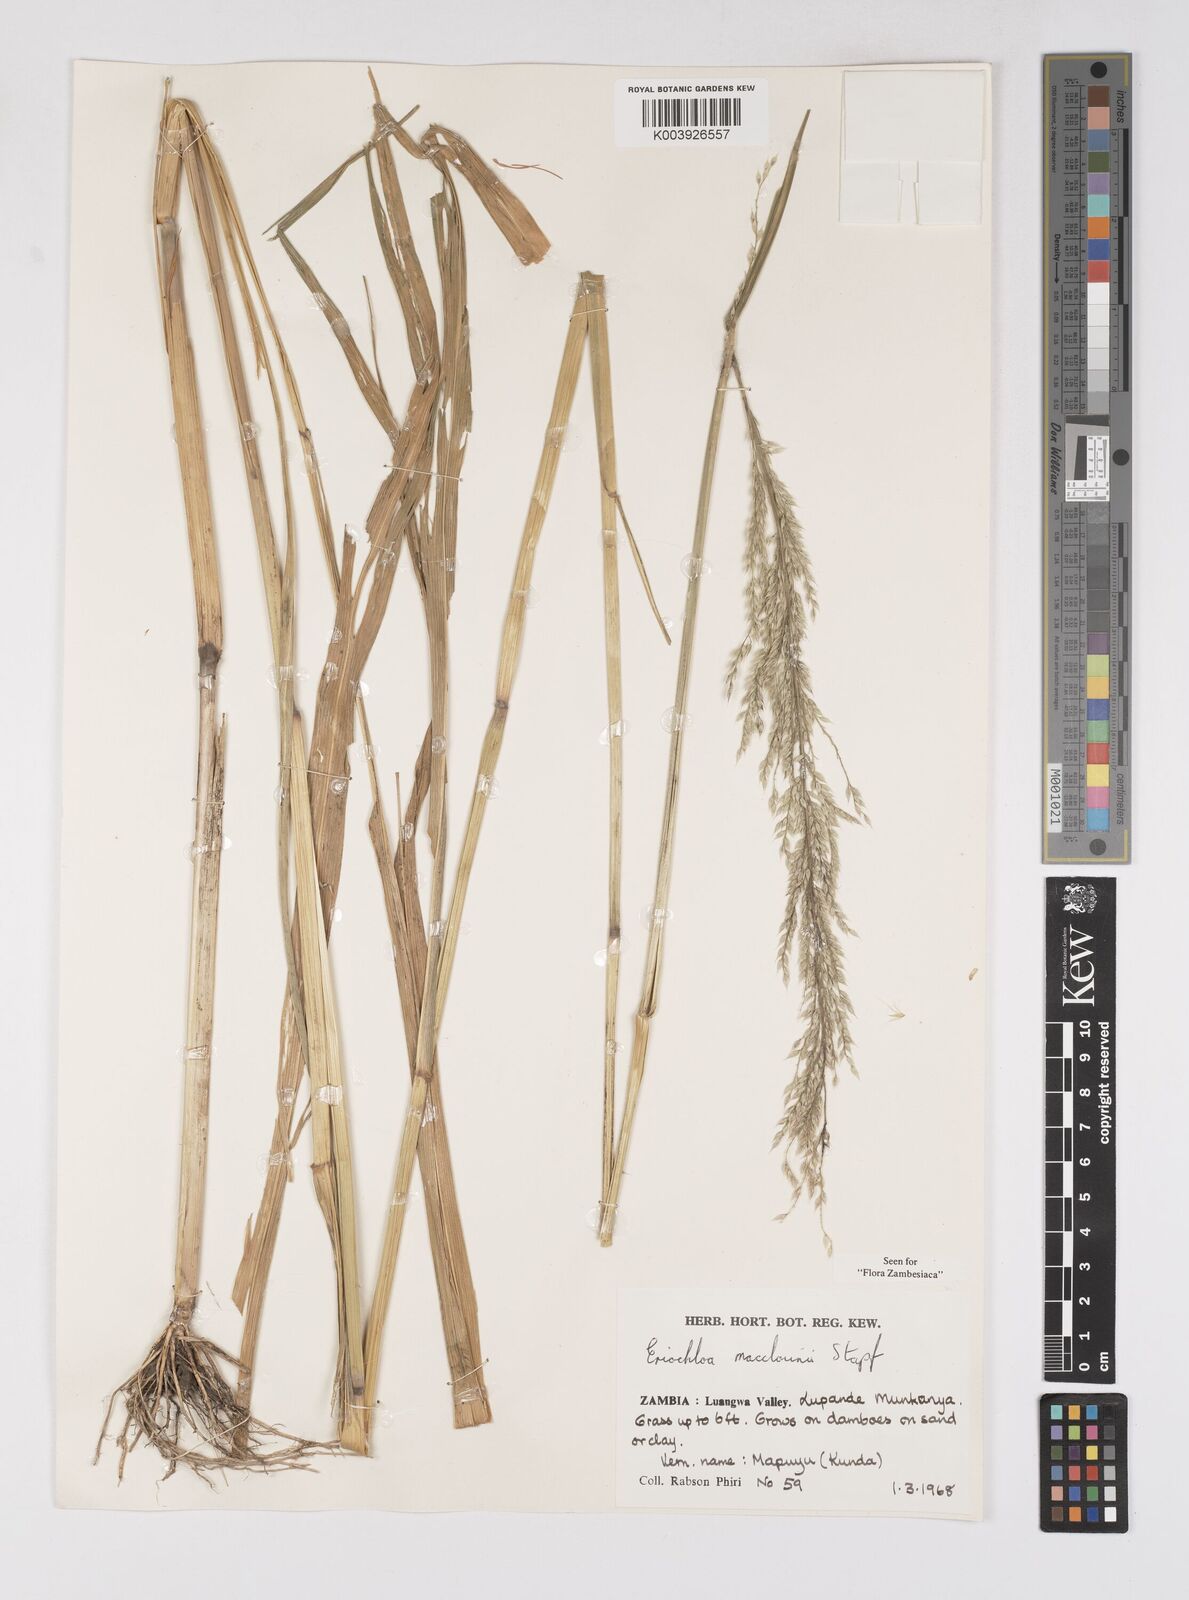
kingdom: Plantae
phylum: Tracheophyta
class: Liliopsida
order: Poales
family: Poaceae
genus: Eriochloa
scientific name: Eriochloa macclounii
